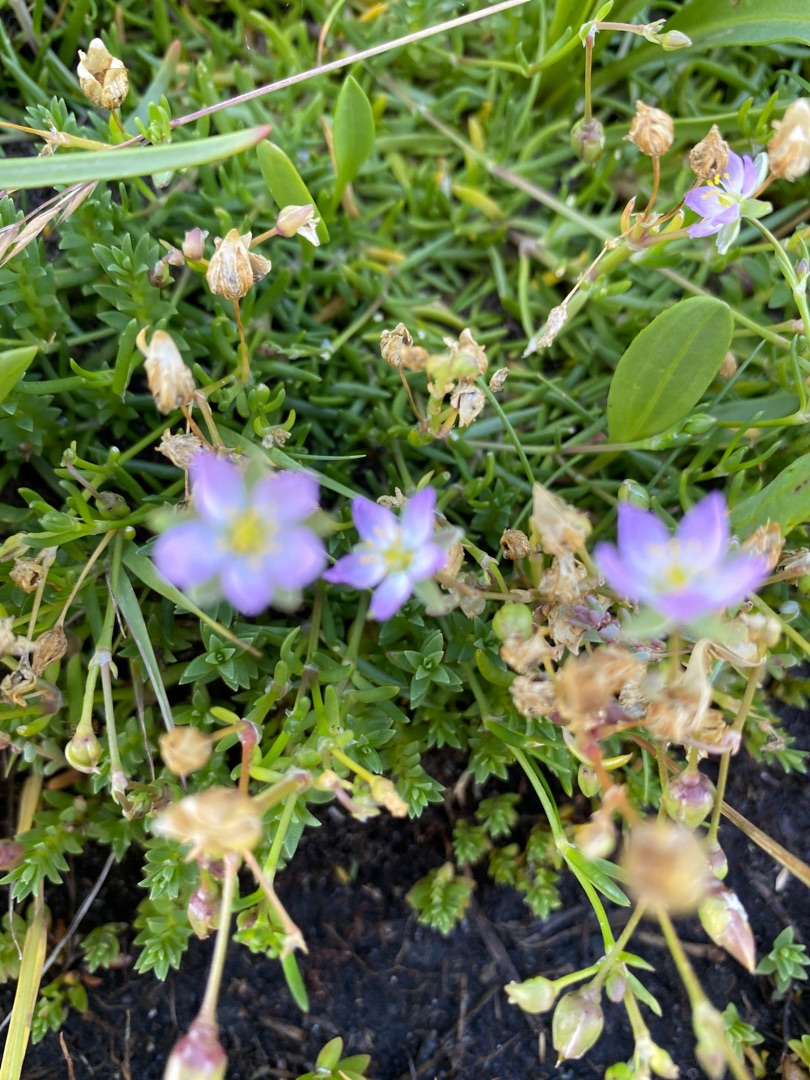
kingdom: Plantae
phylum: Tracheophyta
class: Magnoliopsida
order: Caryophyllales
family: Caryophyllaceae
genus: Spergularia
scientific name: Spergularia media
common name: Vingefrøet hindeknæ
